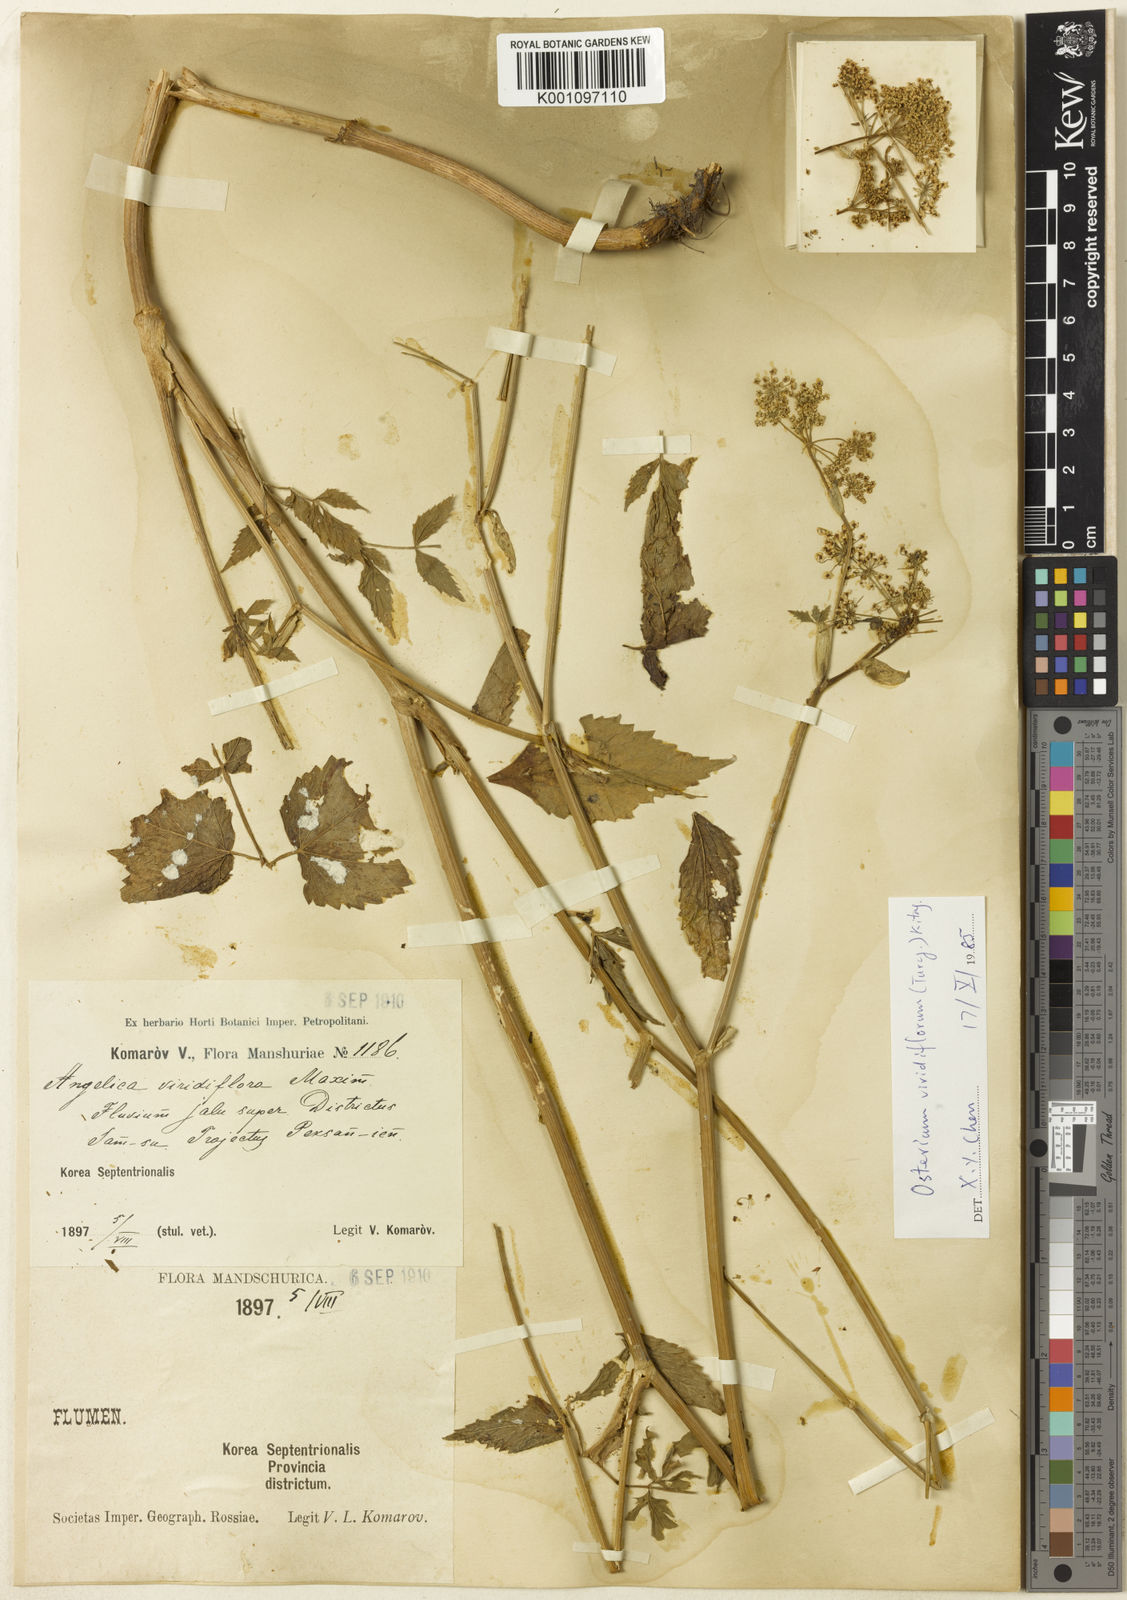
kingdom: Plantae
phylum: Tracheophyta
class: Magnoliopsida
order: Apiales
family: Apiaceae
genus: Ostericum
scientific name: Ostericum viridiflorum
